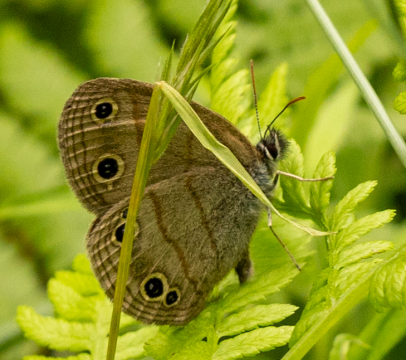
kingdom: Animalia
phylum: Arthropoda
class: Insecta
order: Lepidoptera
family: Nymphalidae
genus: Euptychia
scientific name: Euptychia cymela
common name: Little Wood Satyr
